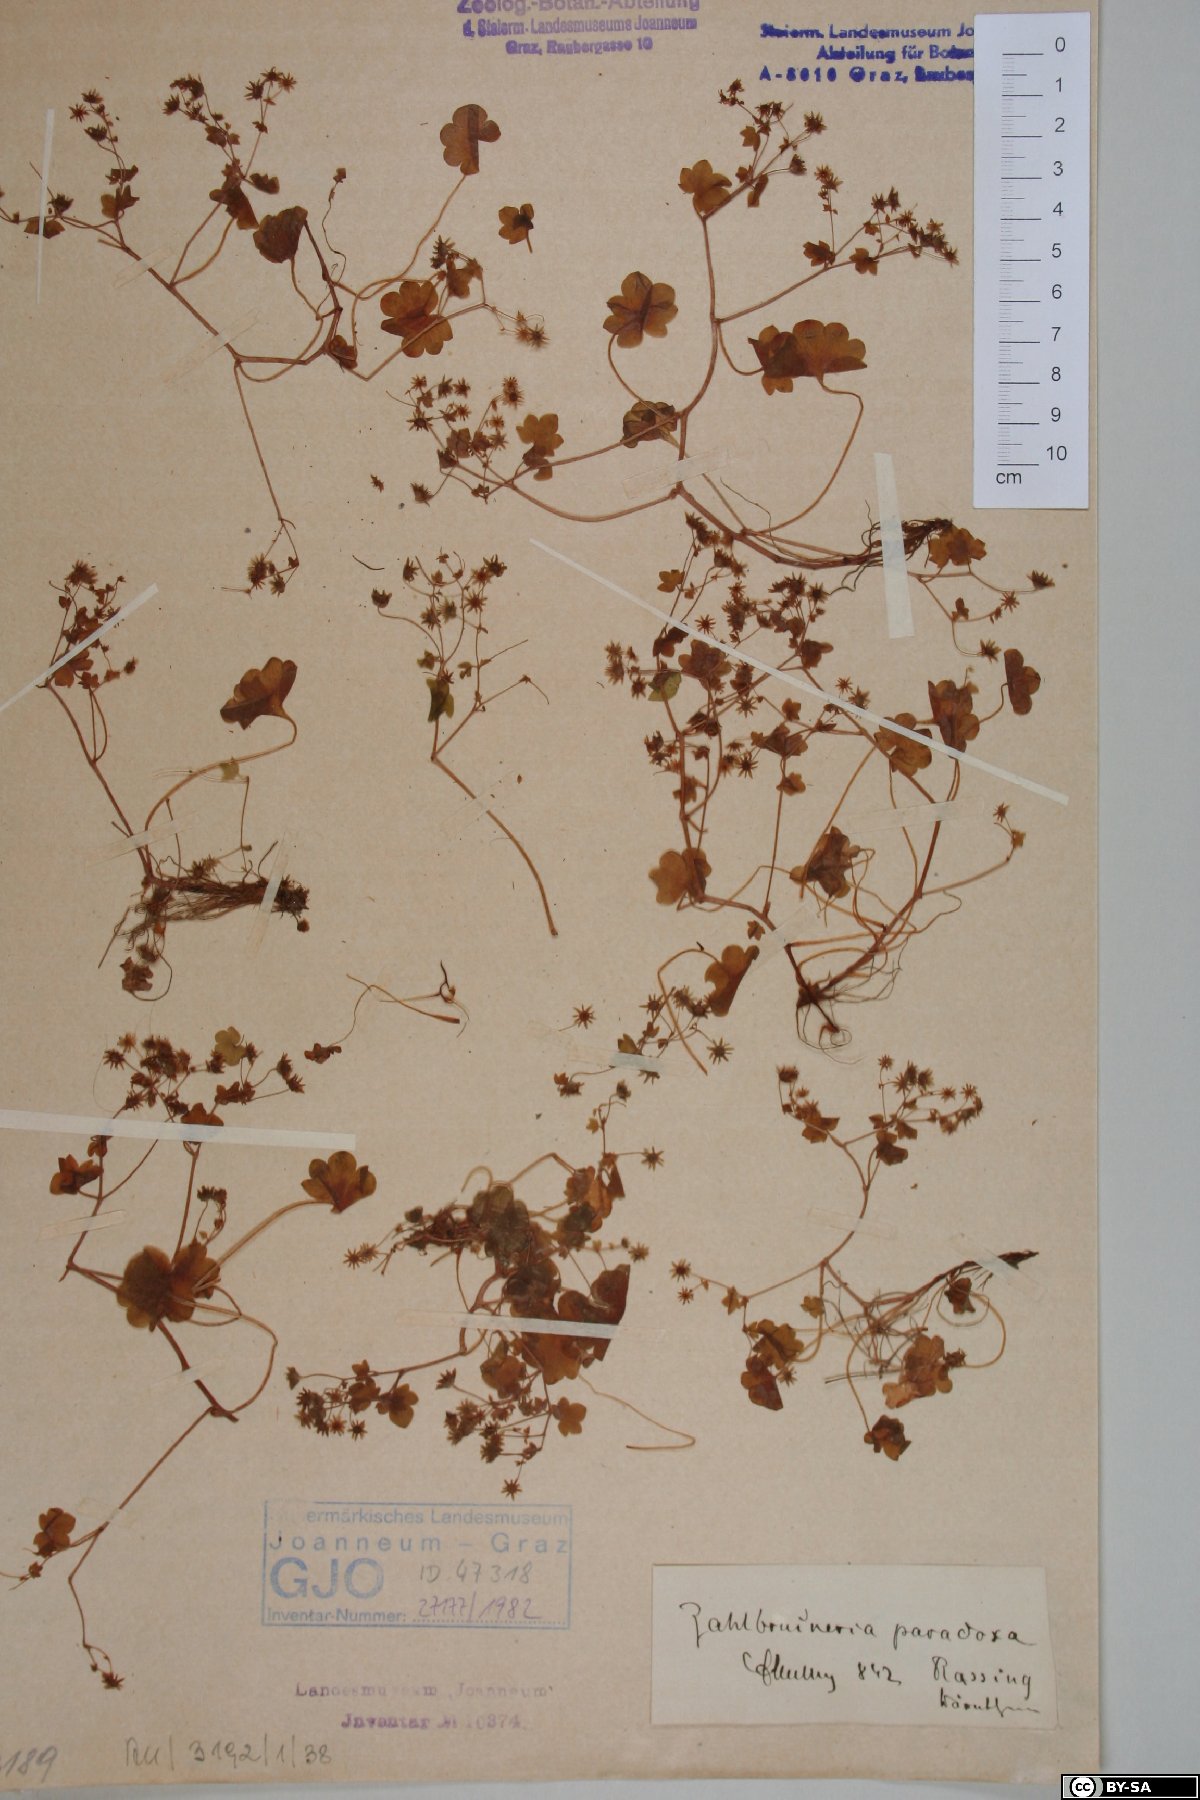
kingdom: Plantae
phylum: Tracheophyta
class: Magnoliopsida
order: Saxifragales
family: Saxifragaceae
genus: Saxifraga
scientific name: Saxifraga paradoxa
